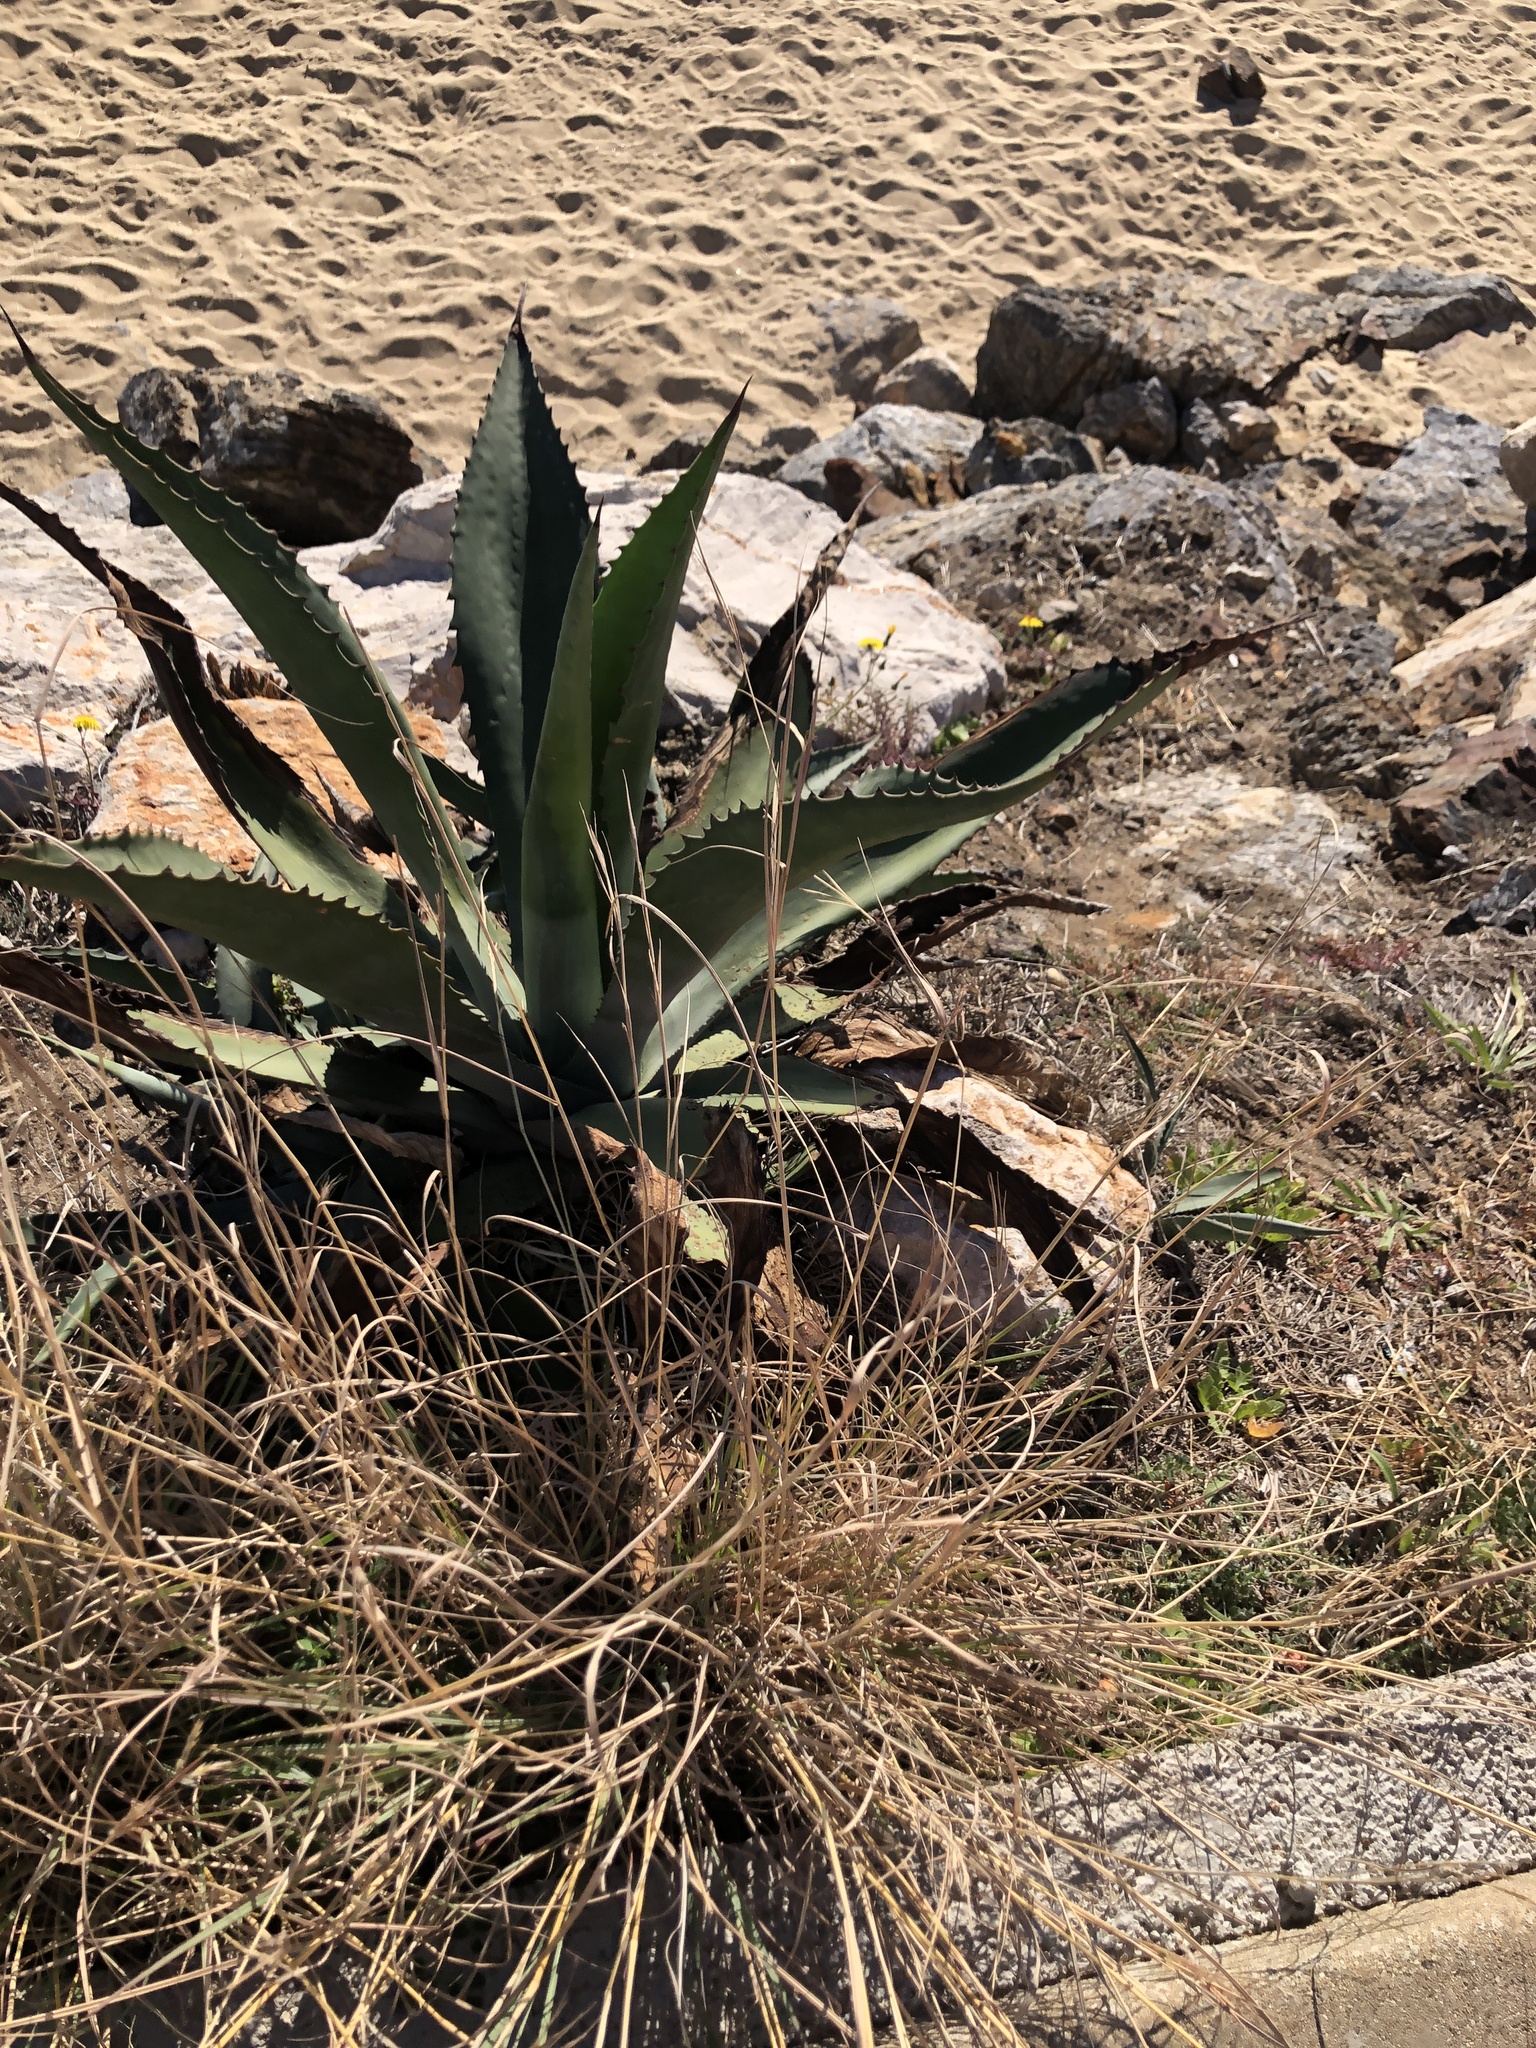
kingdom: Plantae
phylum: Tracheophyta
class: Liliopsida
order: Asparagales
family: Asparagaceae
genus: Agave
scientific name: Agave americana
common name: Centuryplant
